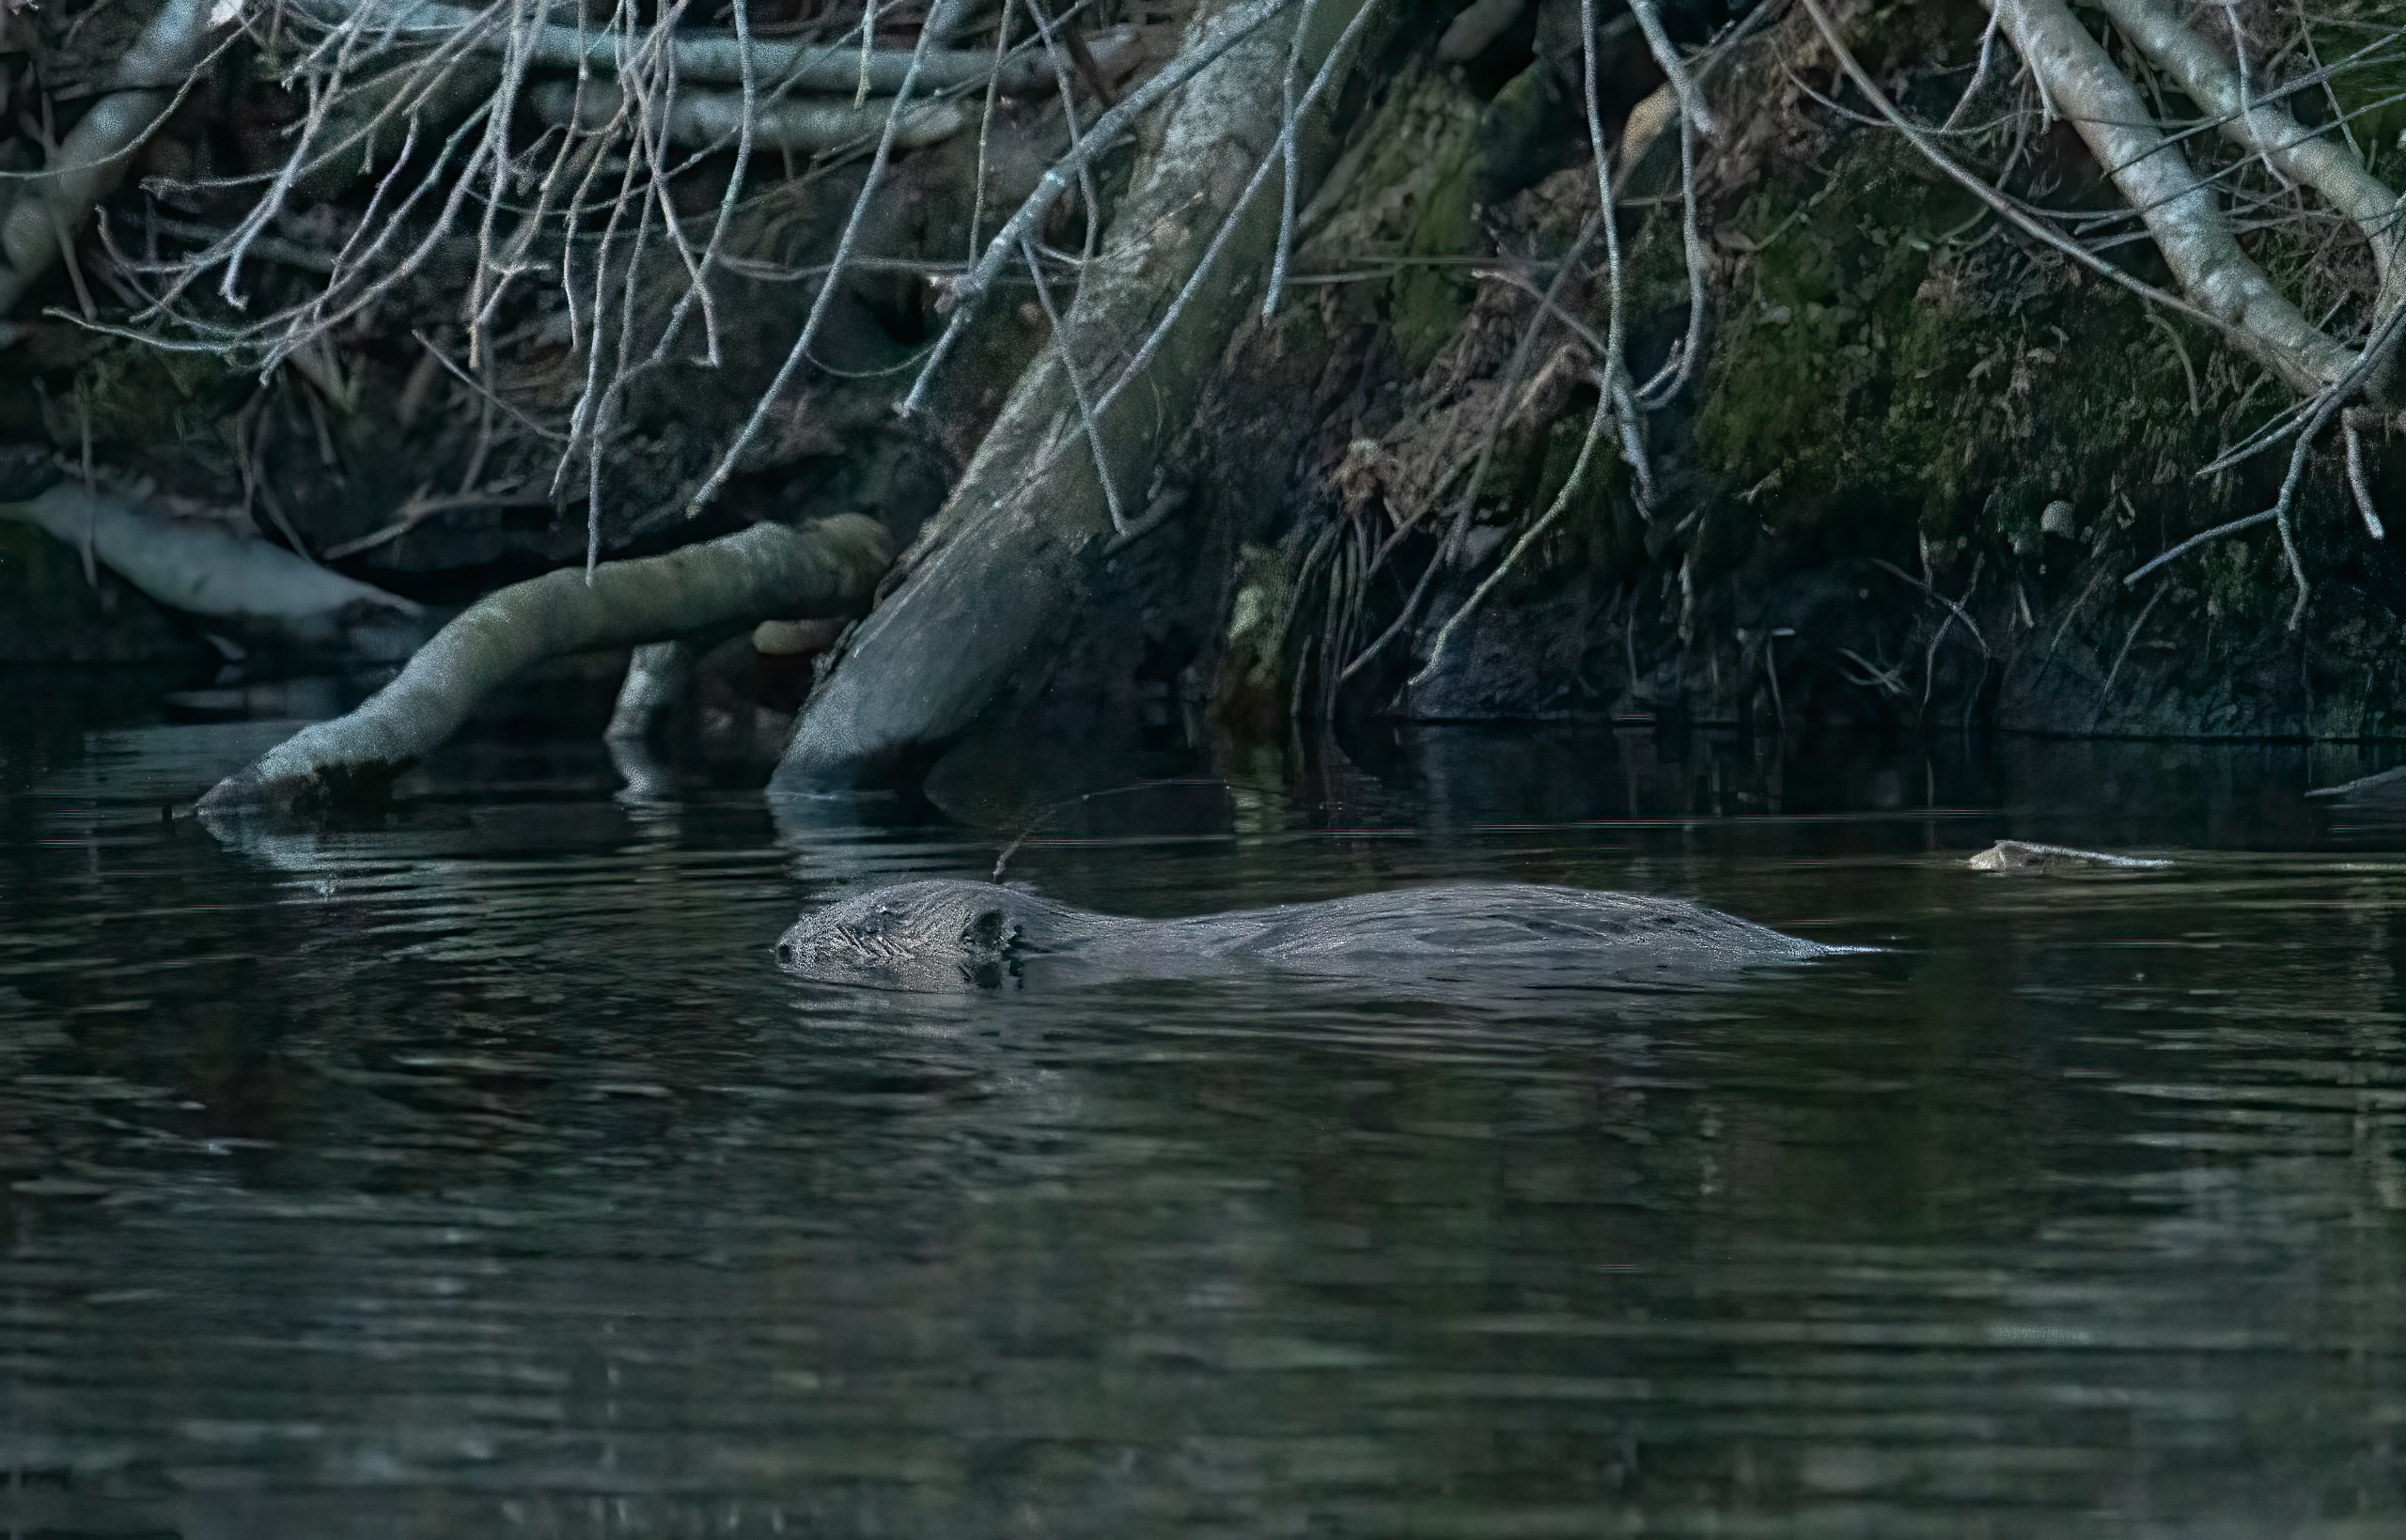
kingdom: Animalia
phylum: Chordata
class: Mammalia
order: Rodentia
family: Castoridae
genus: Castor
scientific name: Castor fiber
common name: Bæver
